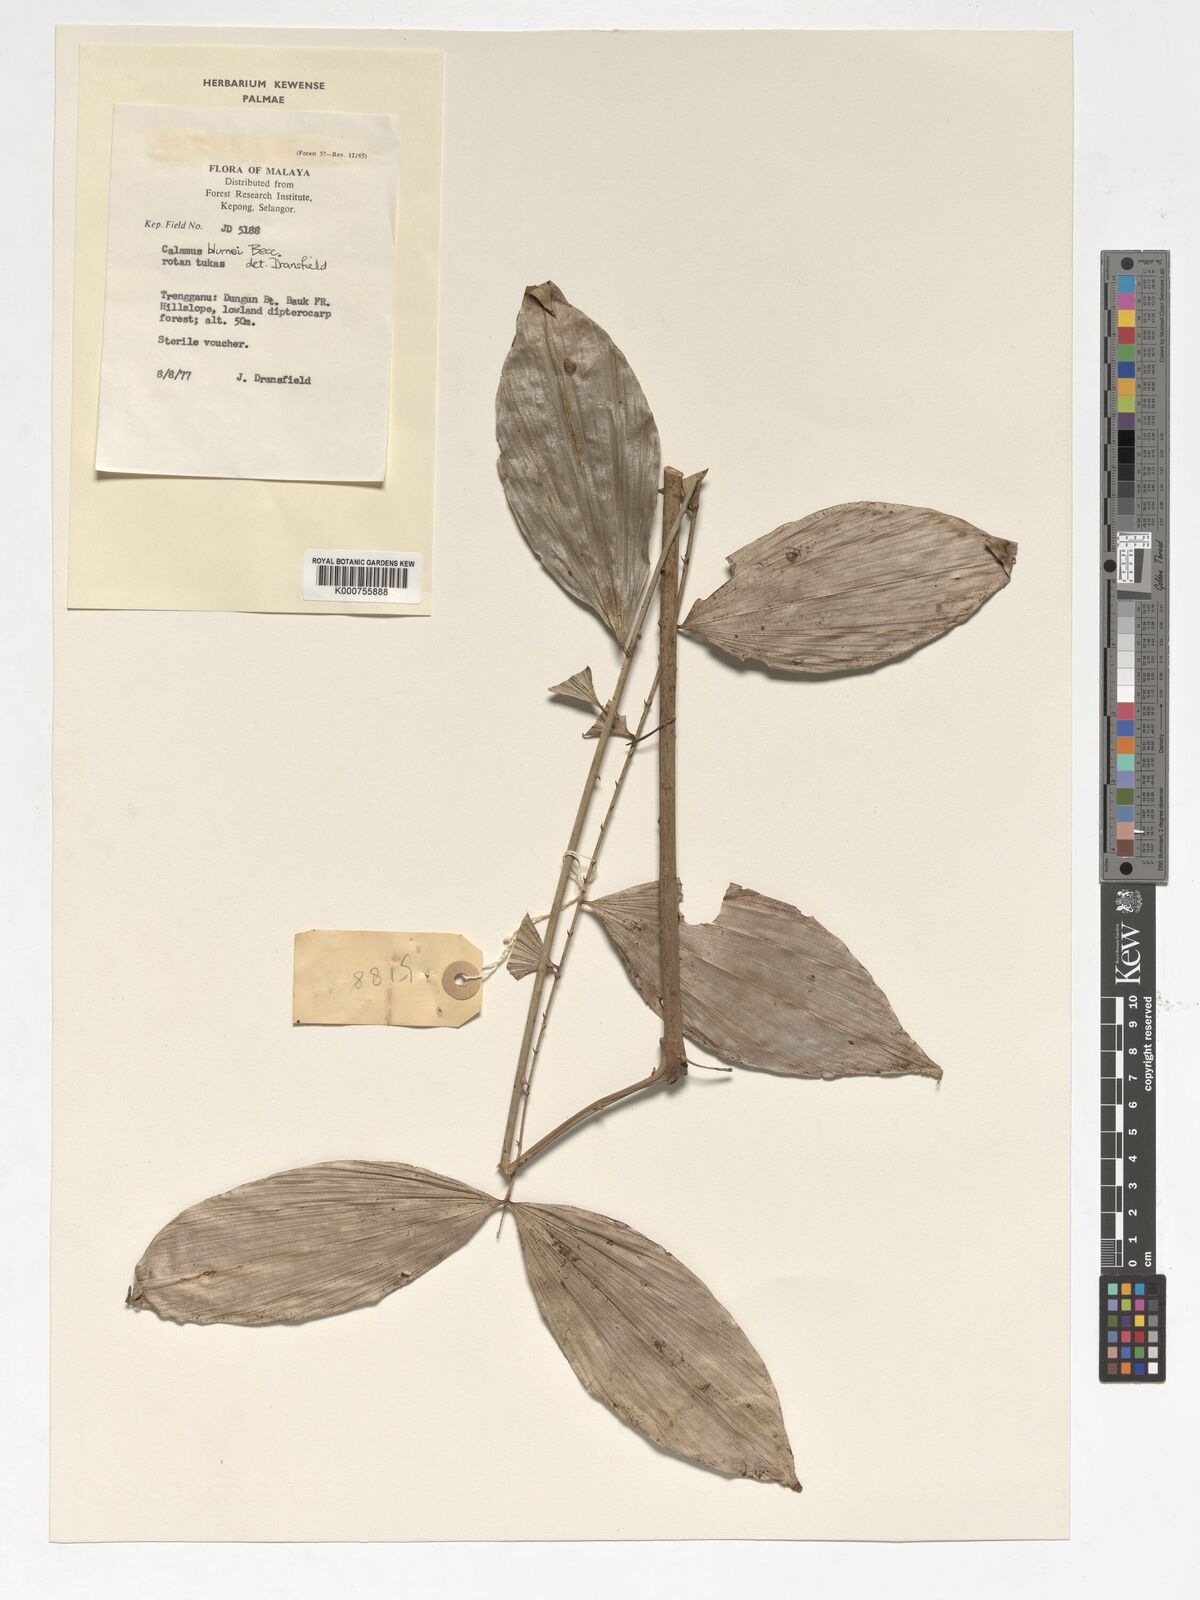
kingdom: Plantae
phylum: Tracheophyta
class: Liliopsida
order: Arecales
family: Arecaceae
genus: Calamus
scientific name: Calamus rhomboideus
